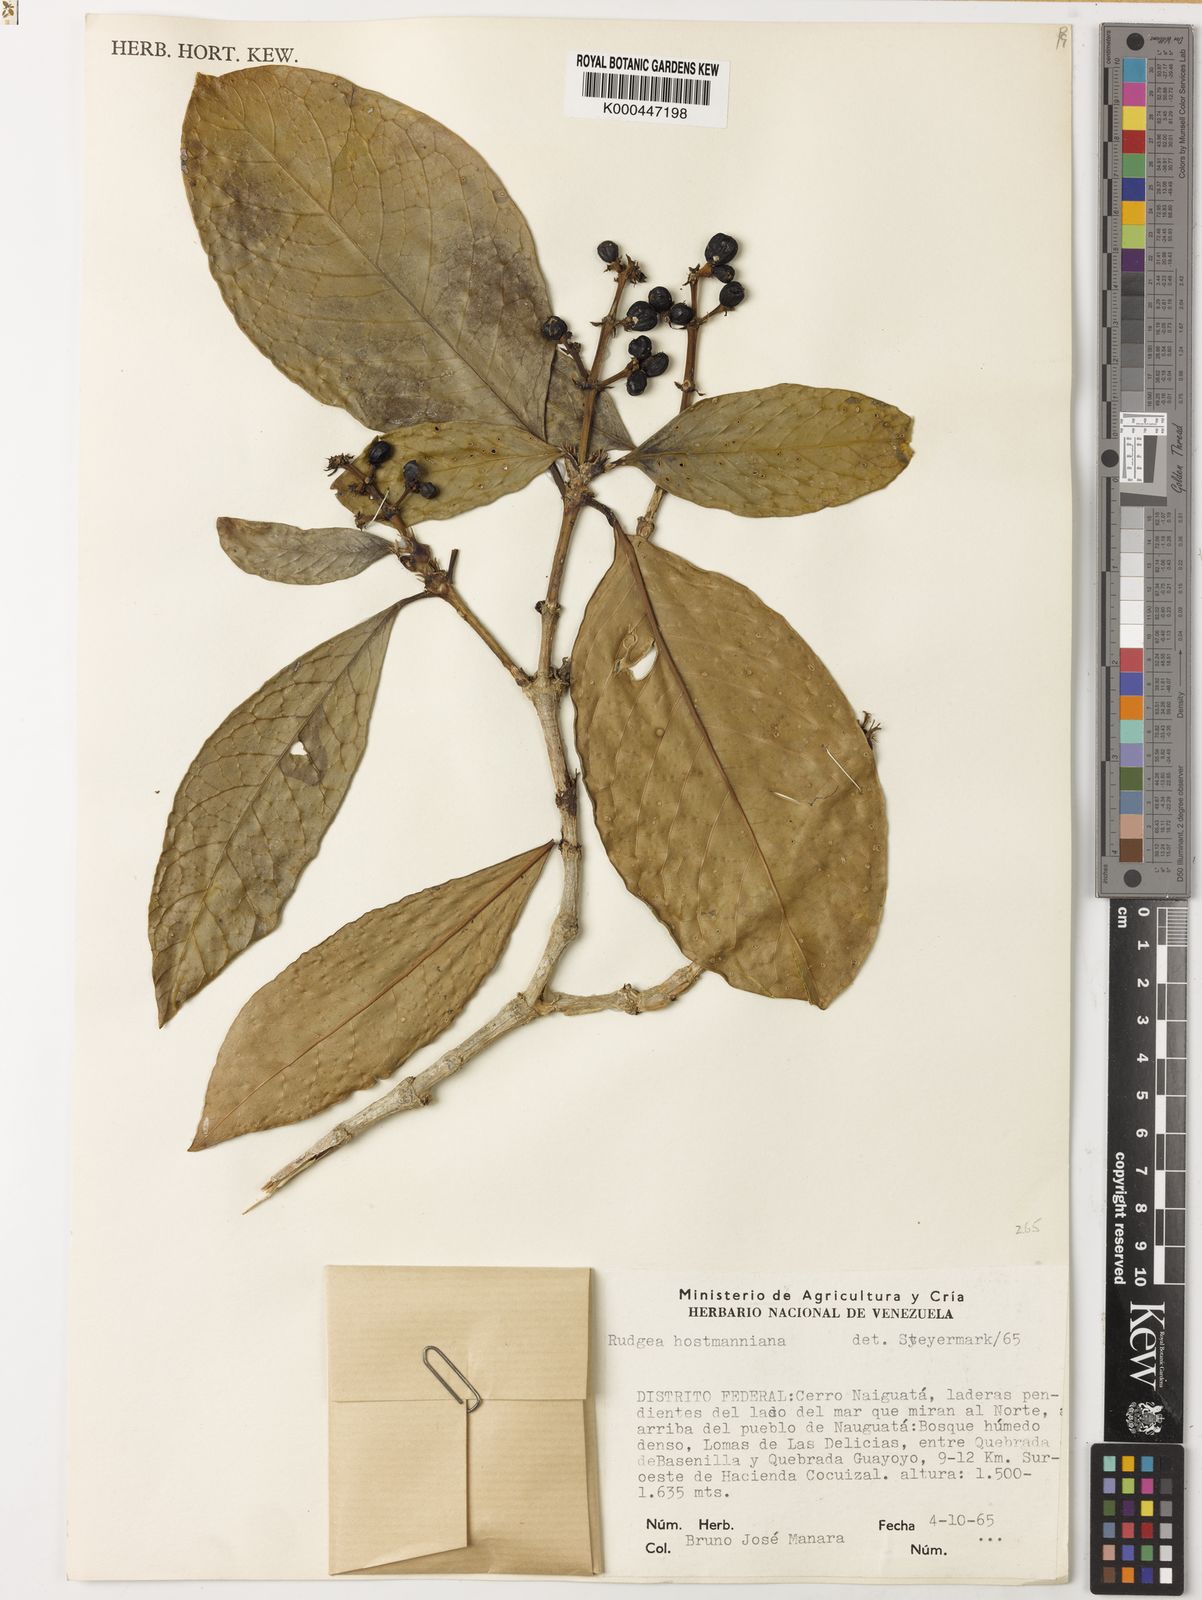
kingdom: Plantae
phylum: Tracheophyta
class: Magnoliopsida
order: Gentianales
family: Rubiaceae
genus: Rudgea
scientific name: Rudgea hostmanniana
